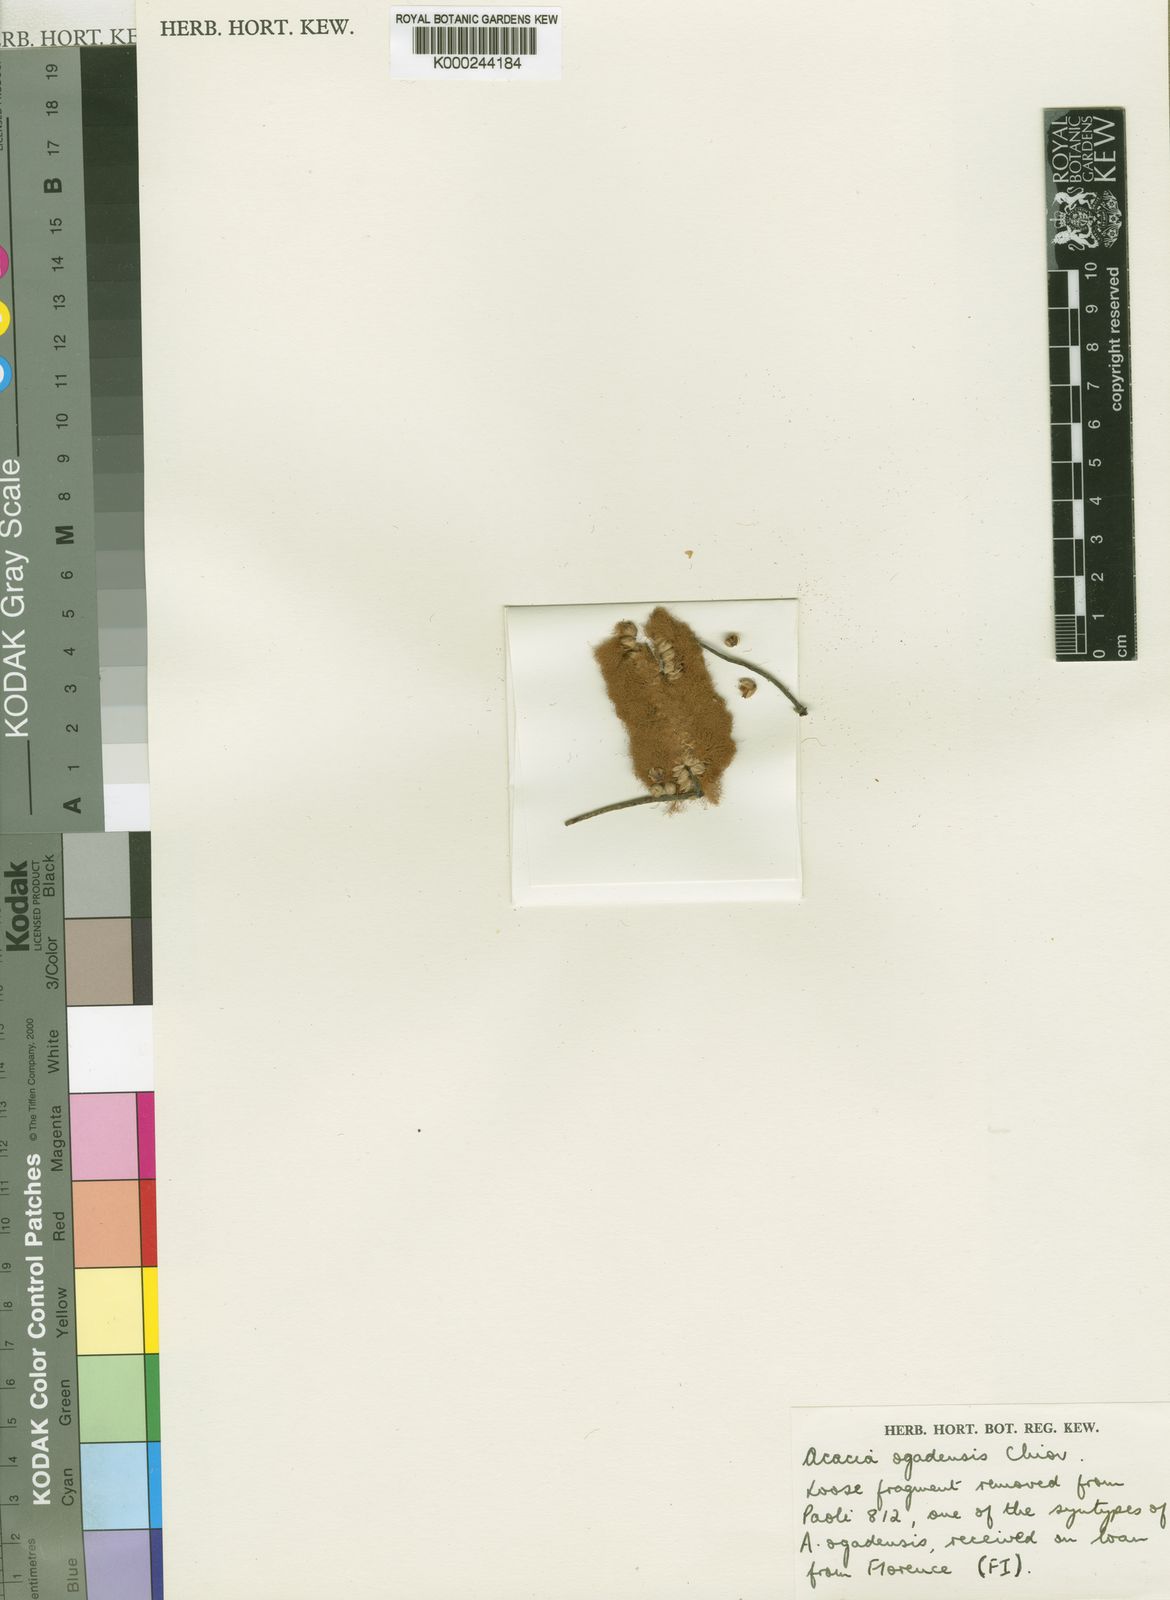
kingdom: Plantae
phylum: Tracheophyta
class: Magnoliopsida
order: Fabales
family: Fabaceae
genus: Senegalia
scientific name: Senegalia ogadensis
